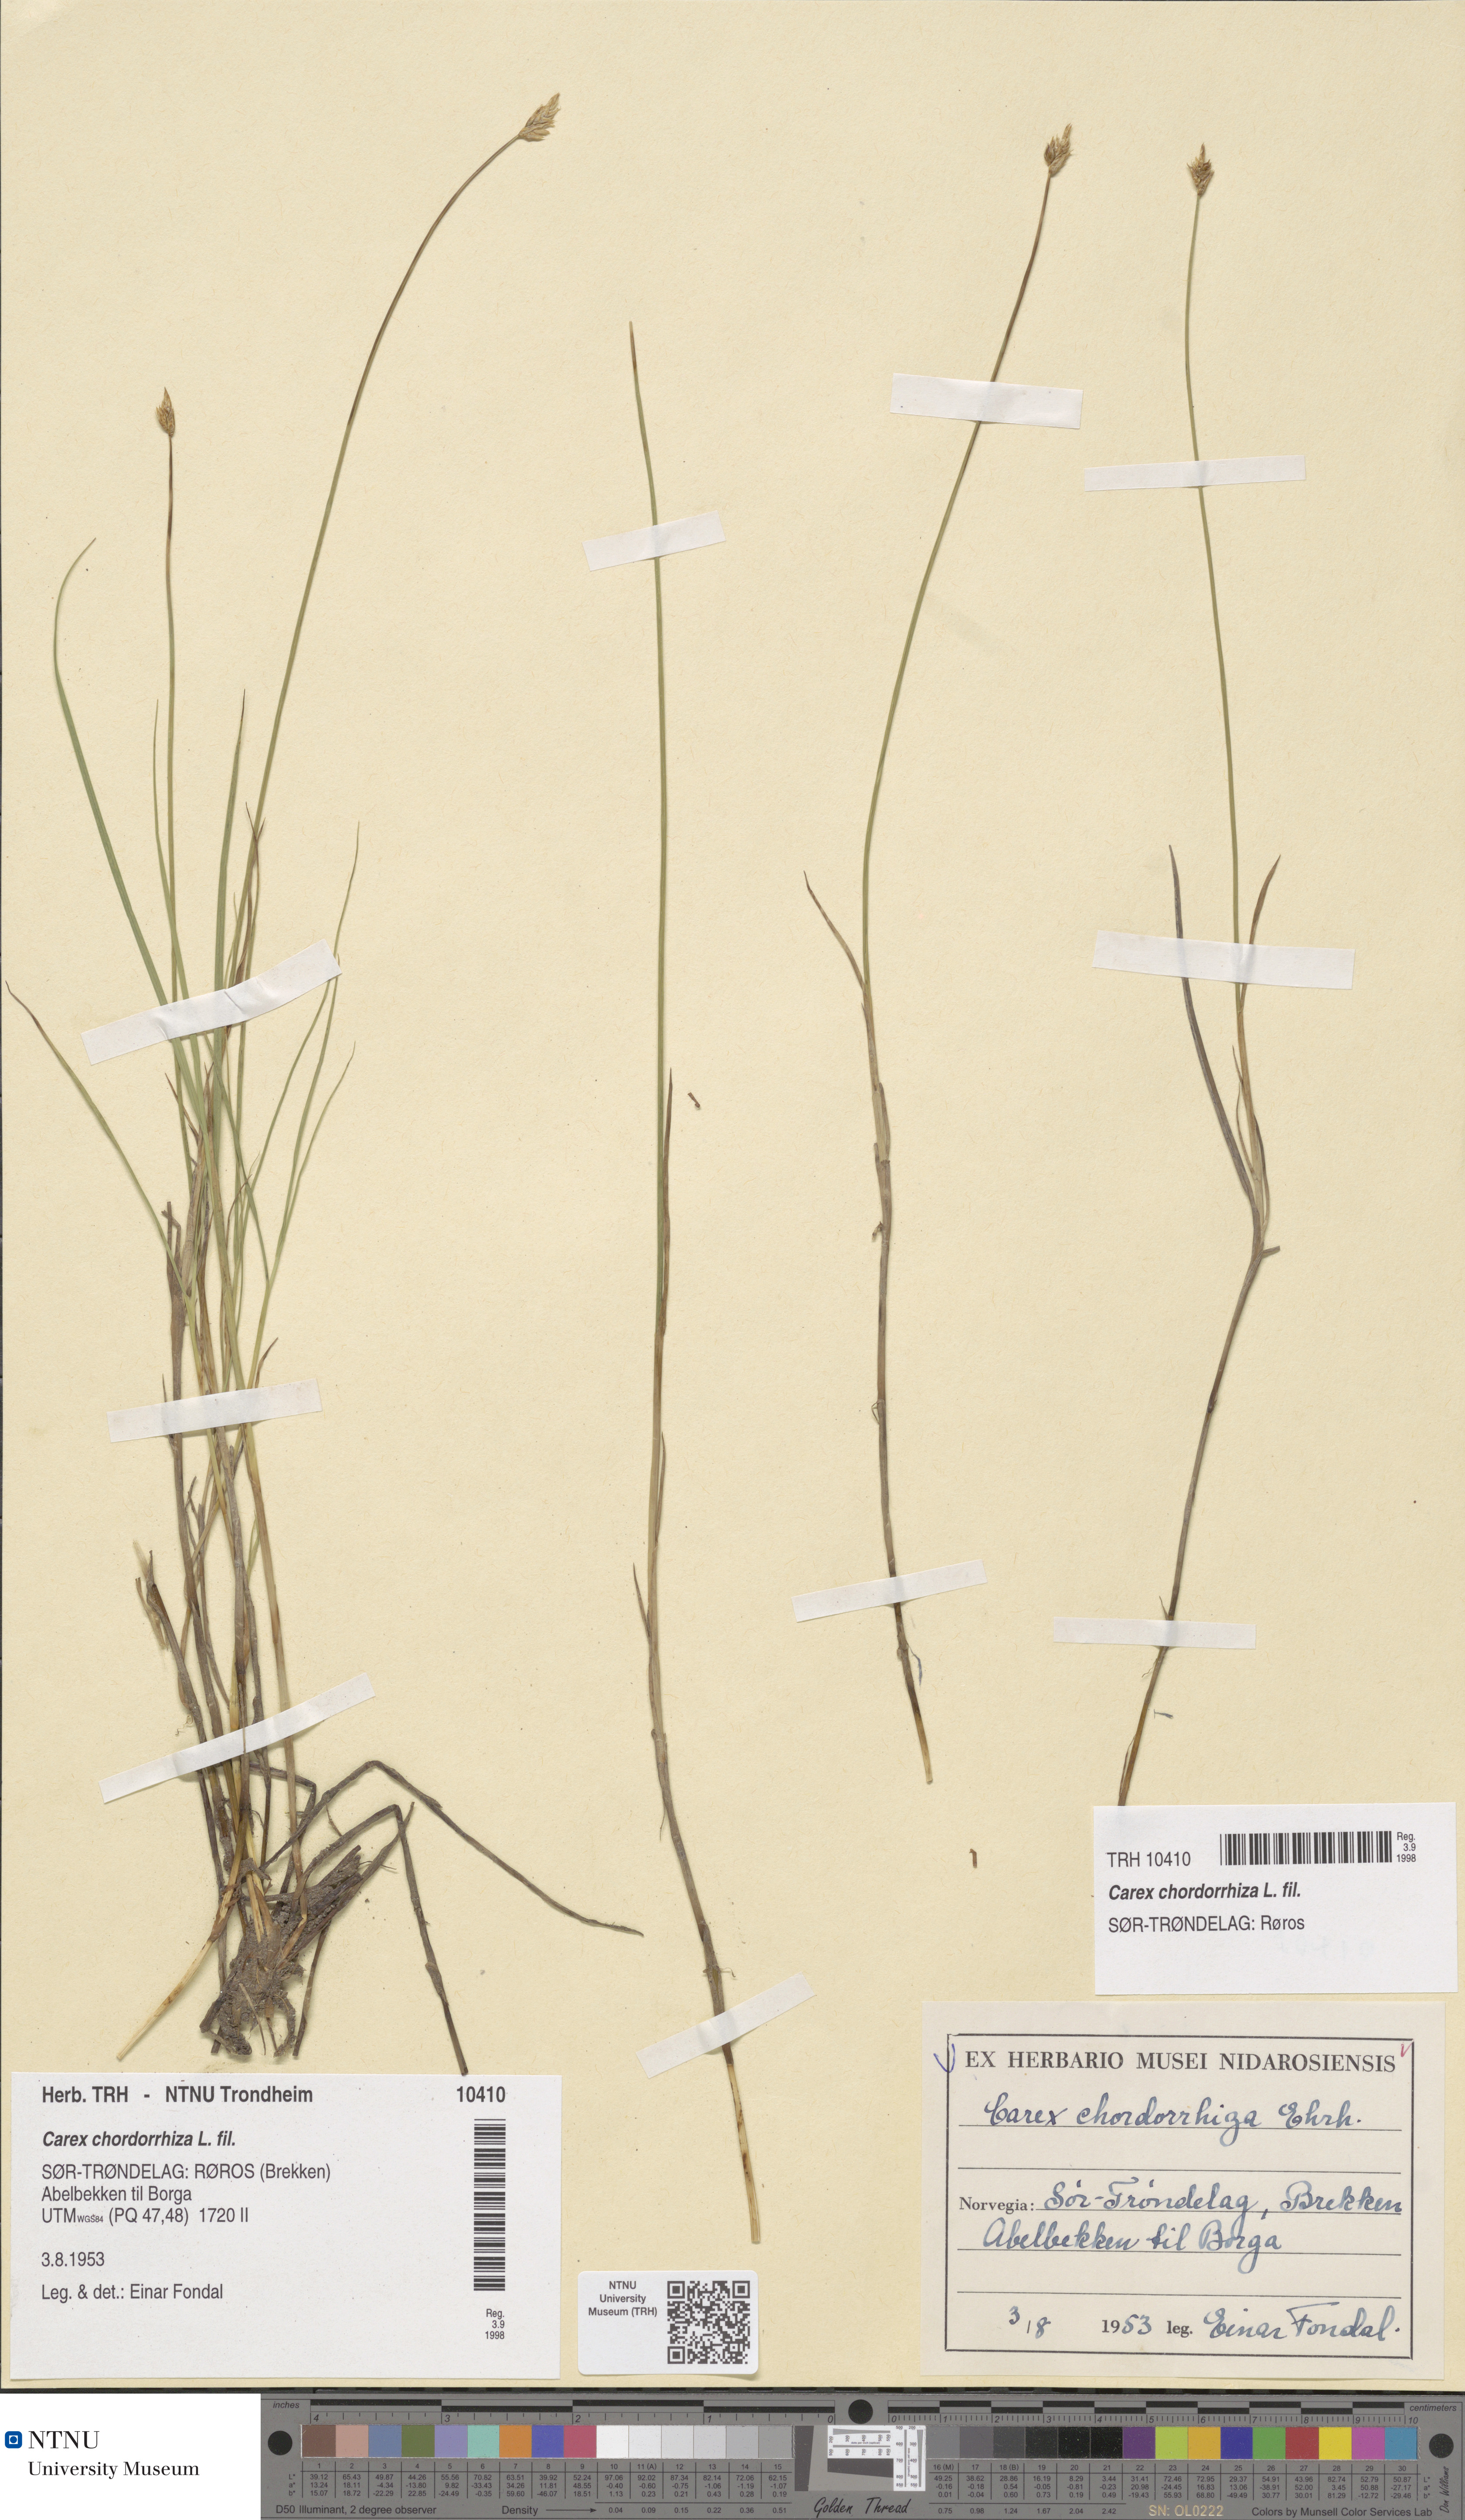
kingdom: Plantae
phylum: Tracheophyta
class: Liliopsida
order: Poales
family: Cyperaceae
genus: Carex
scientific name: Carex chordorrhiza
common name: String sedge
